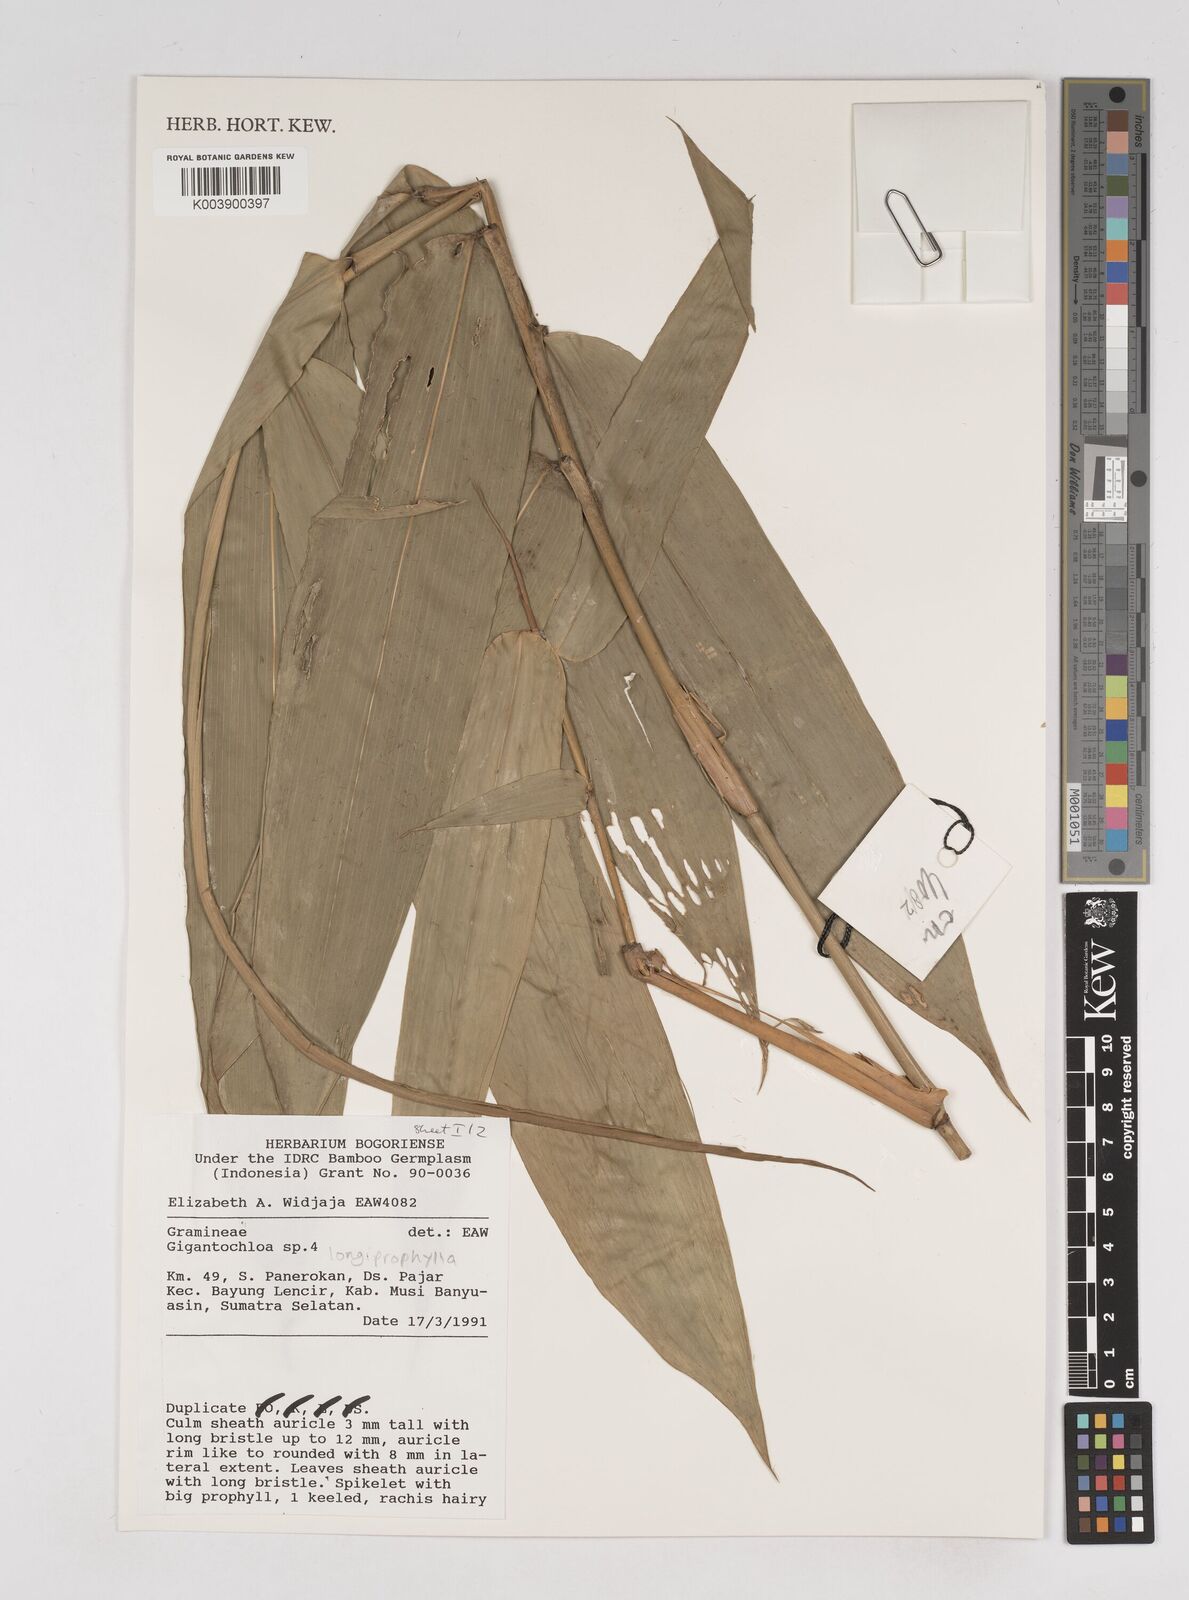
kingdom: Plantae
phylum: Tracheophyta
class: Liliopsida
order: Poales
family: Poaceae
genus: Gigantochloa
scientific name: Gigantochloa longiprophylla
